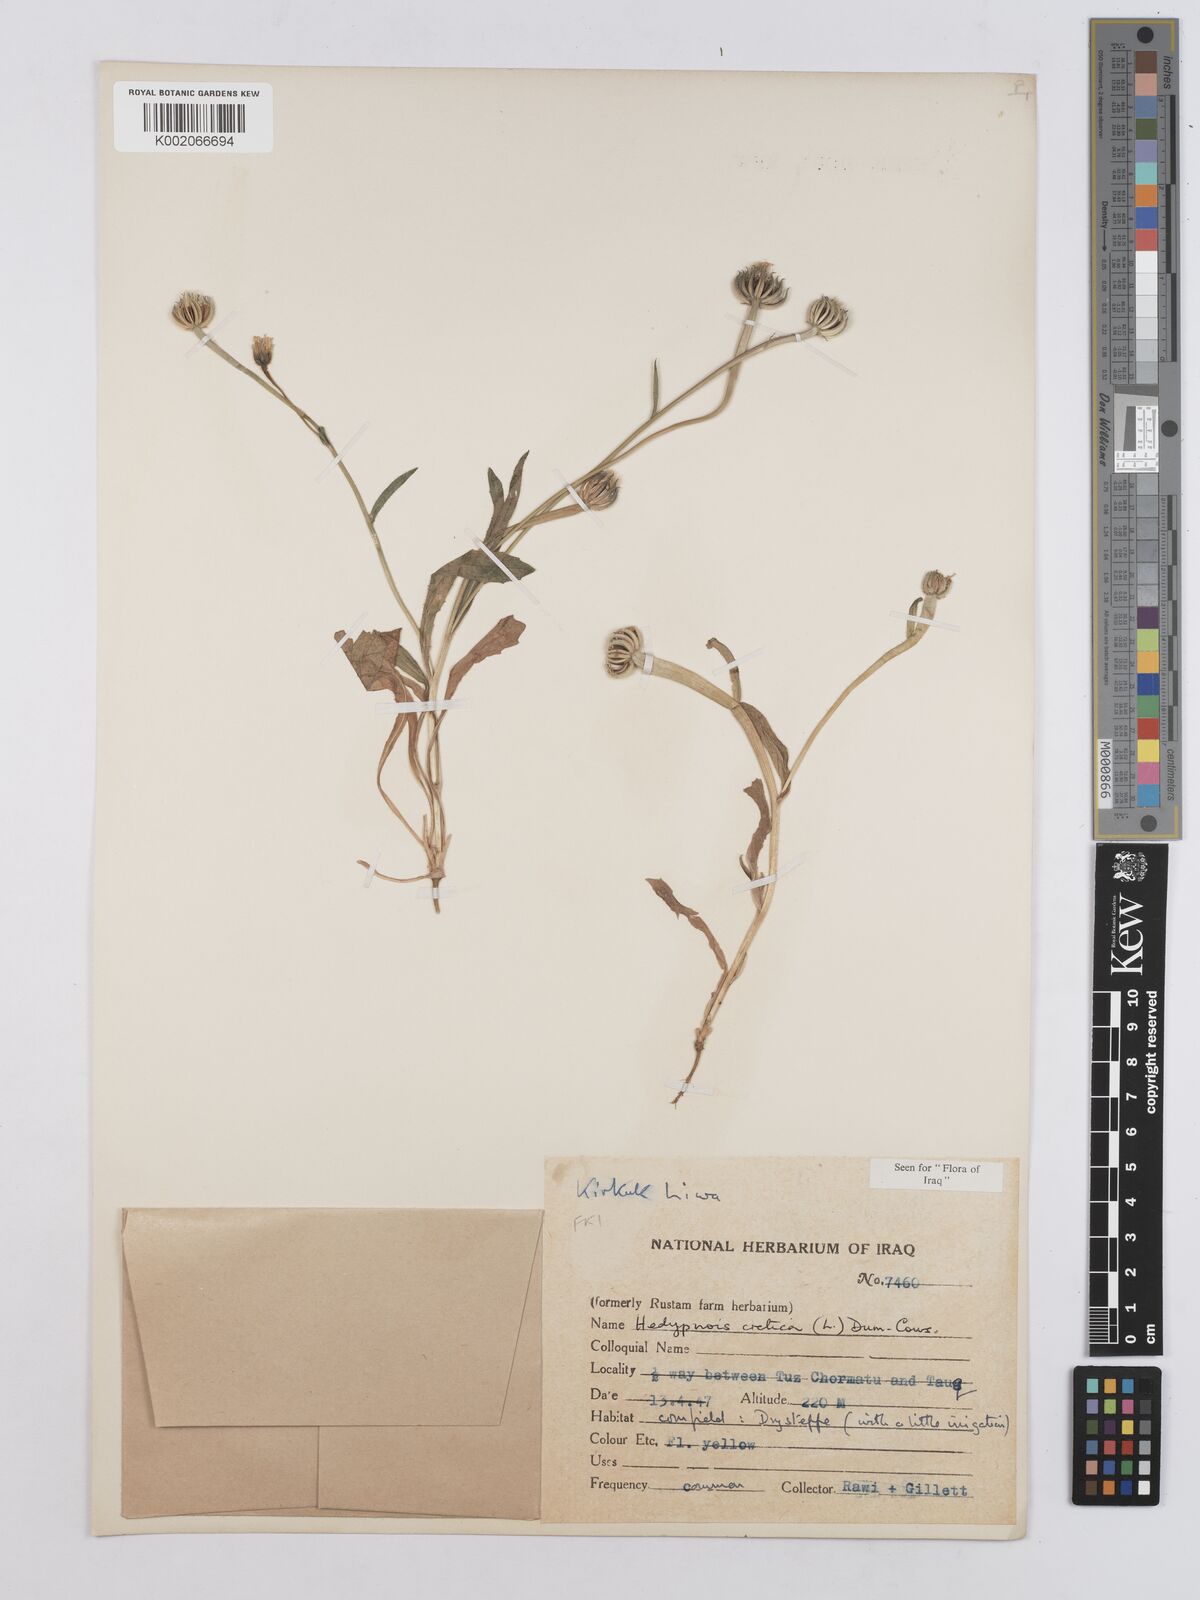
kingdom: Plantae
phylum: Tracheophyta
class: Magnoliopsida
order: Asterales
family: Asteraceae
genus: Hedypnois
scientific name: Hedypnois cretica
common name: Scaly hawkbit
